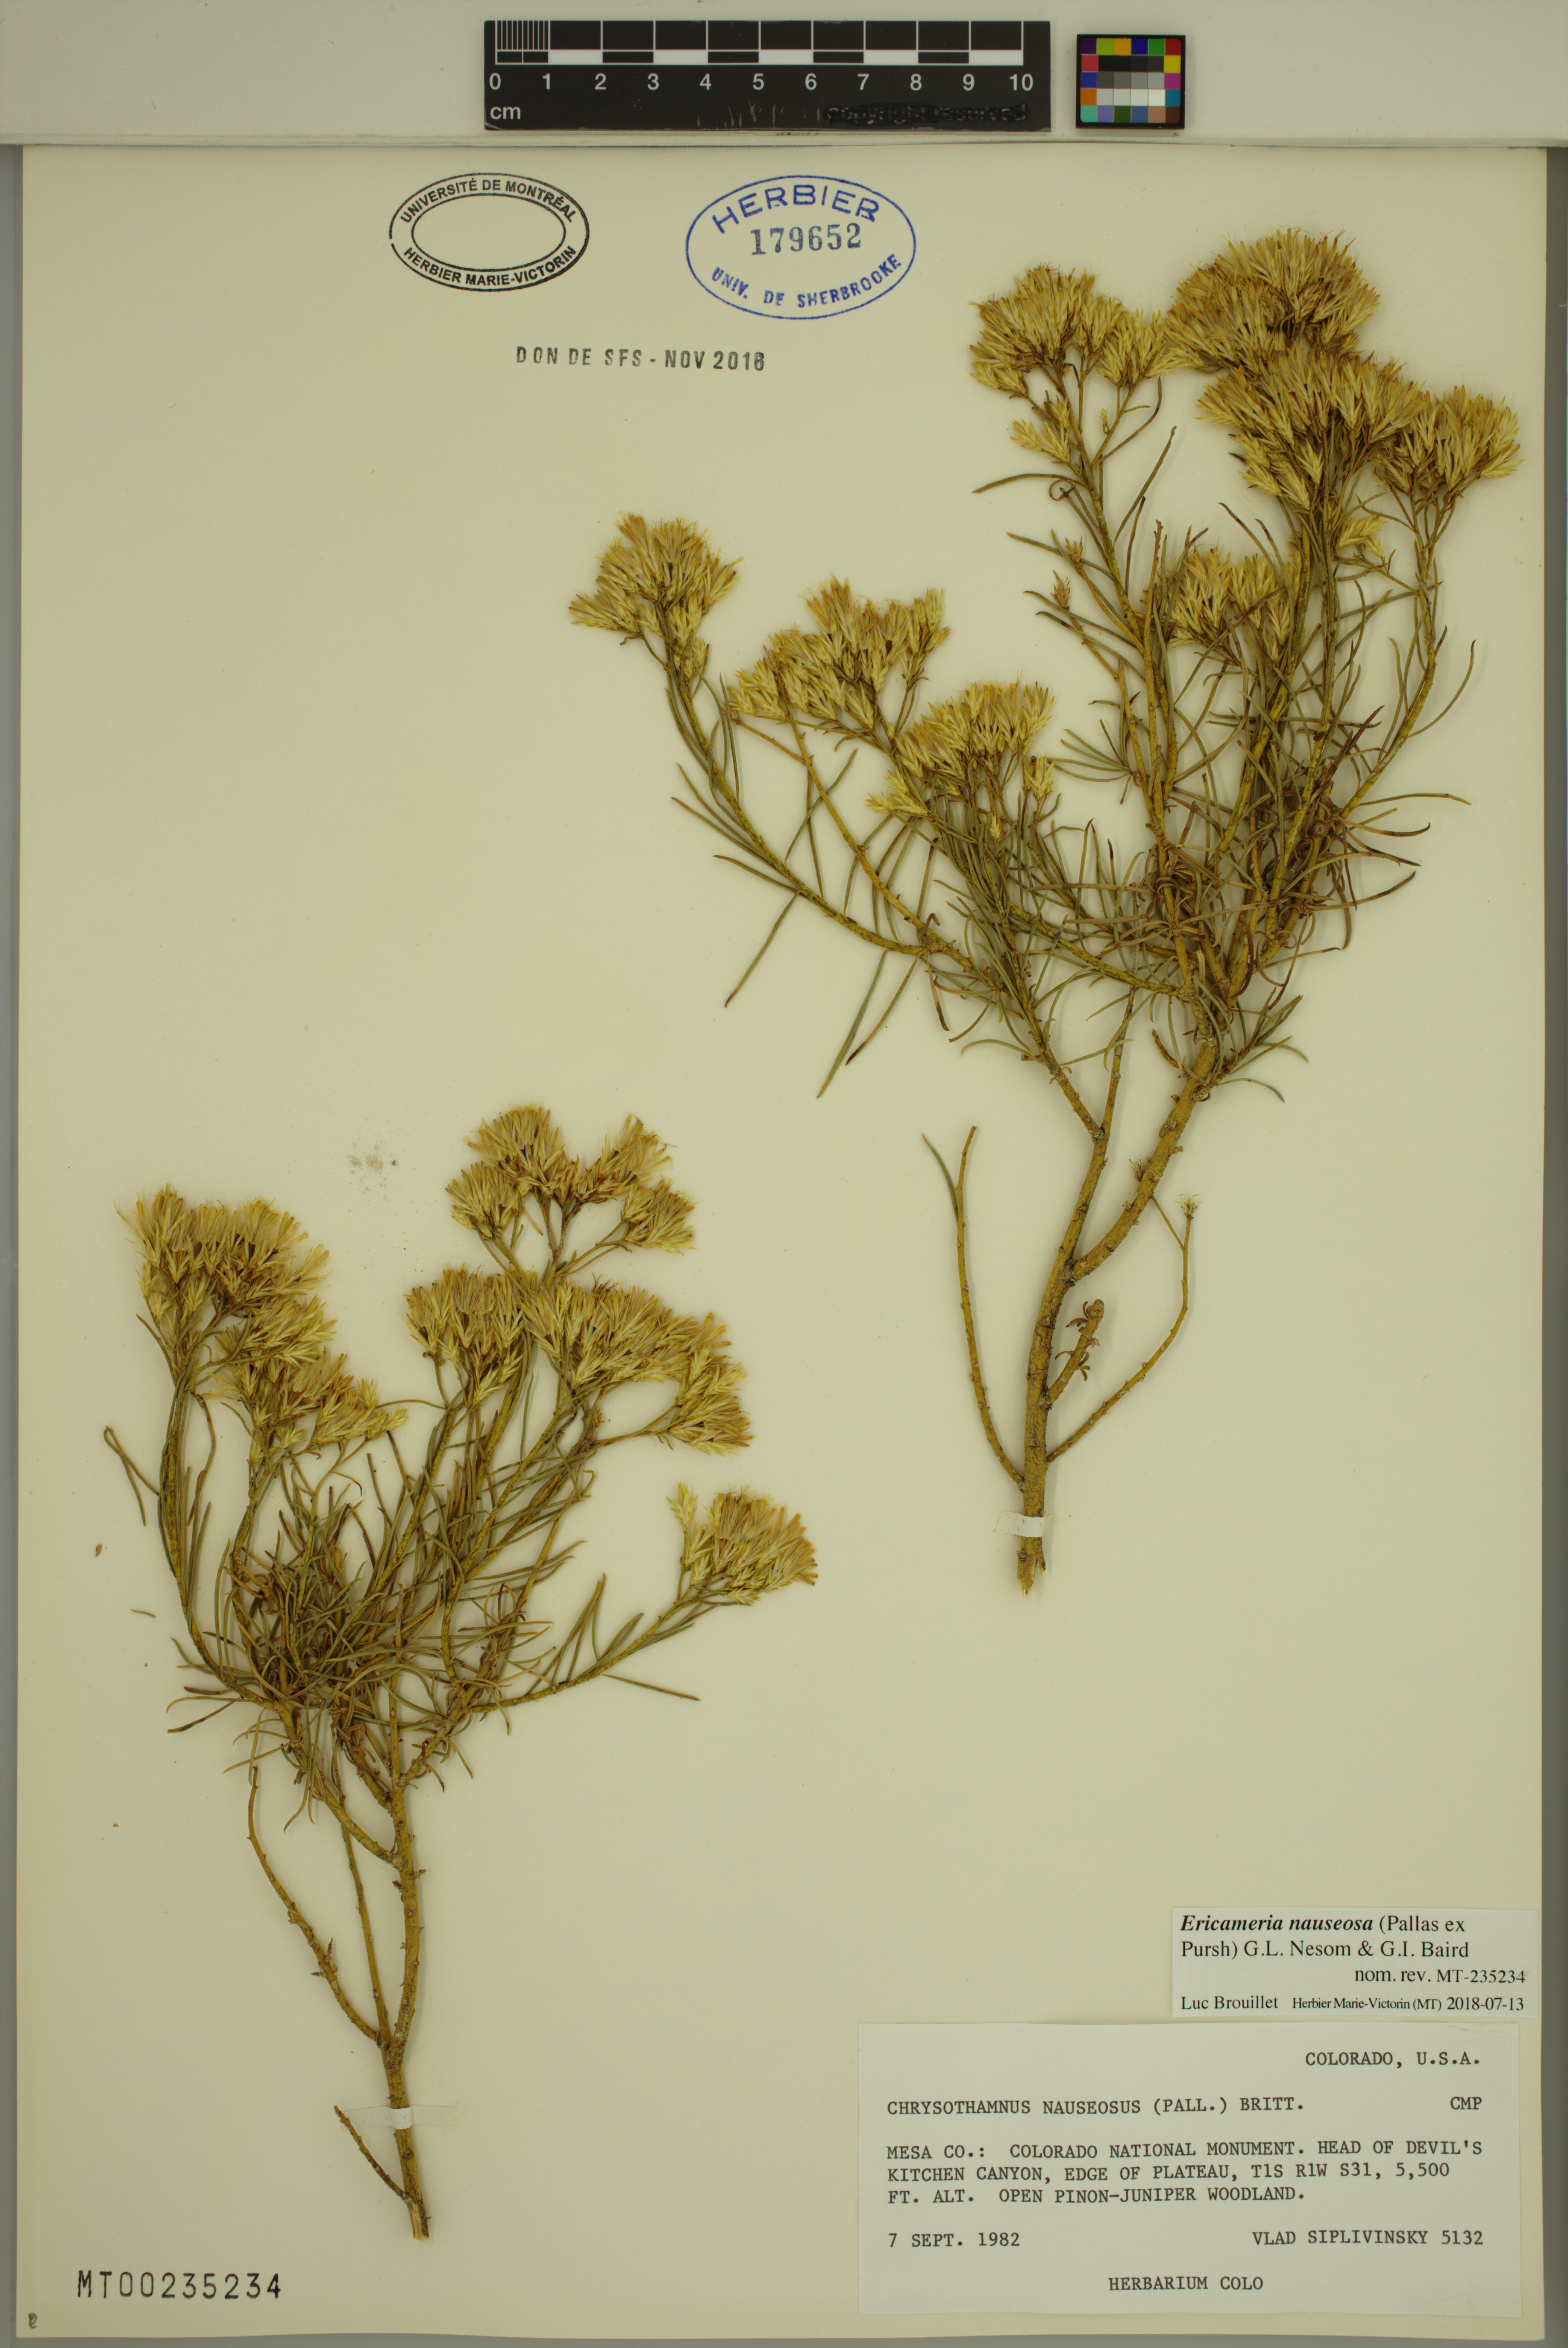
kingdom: Plantae
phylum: Tracheophyta
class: Magnoliopsida
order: Asterales
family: Asteraceae
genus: Ericameria
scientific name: Ericameria nauseosa
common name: Rubber rabbitbrush
